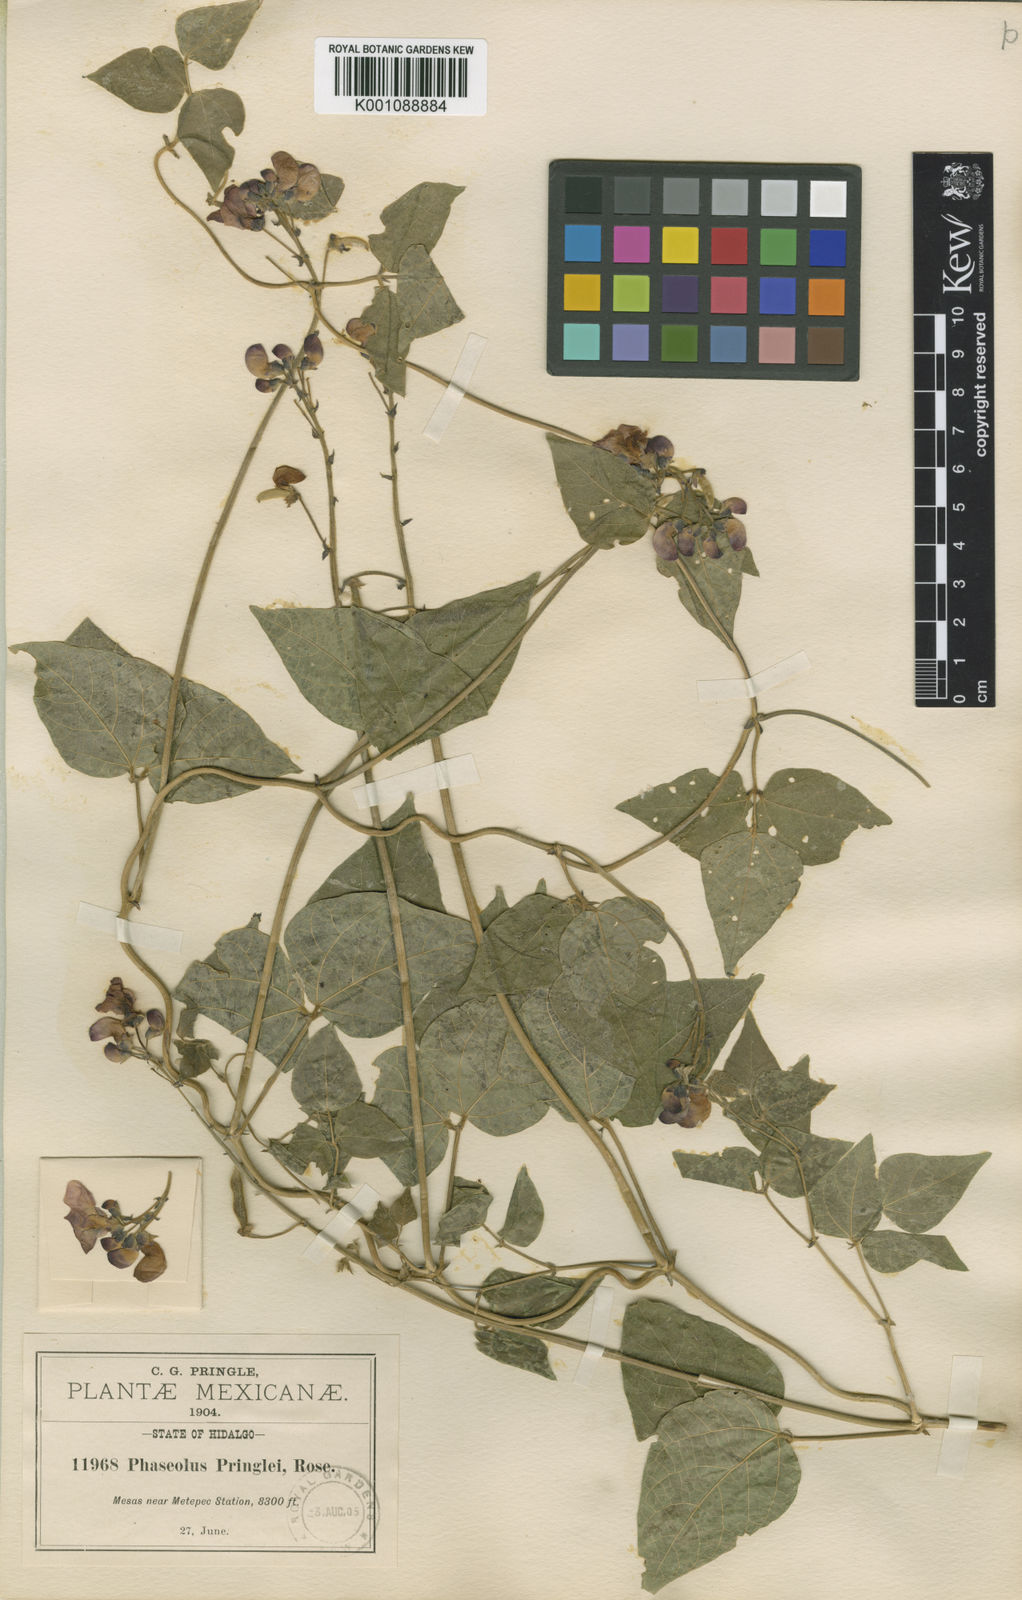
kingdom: Plantae
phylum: Tracheophyta
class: Magnoliopsida
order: Fabales
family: Fabaceae
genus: Phaseolus
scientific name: Phaseolus coccineus
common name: Runner bean
